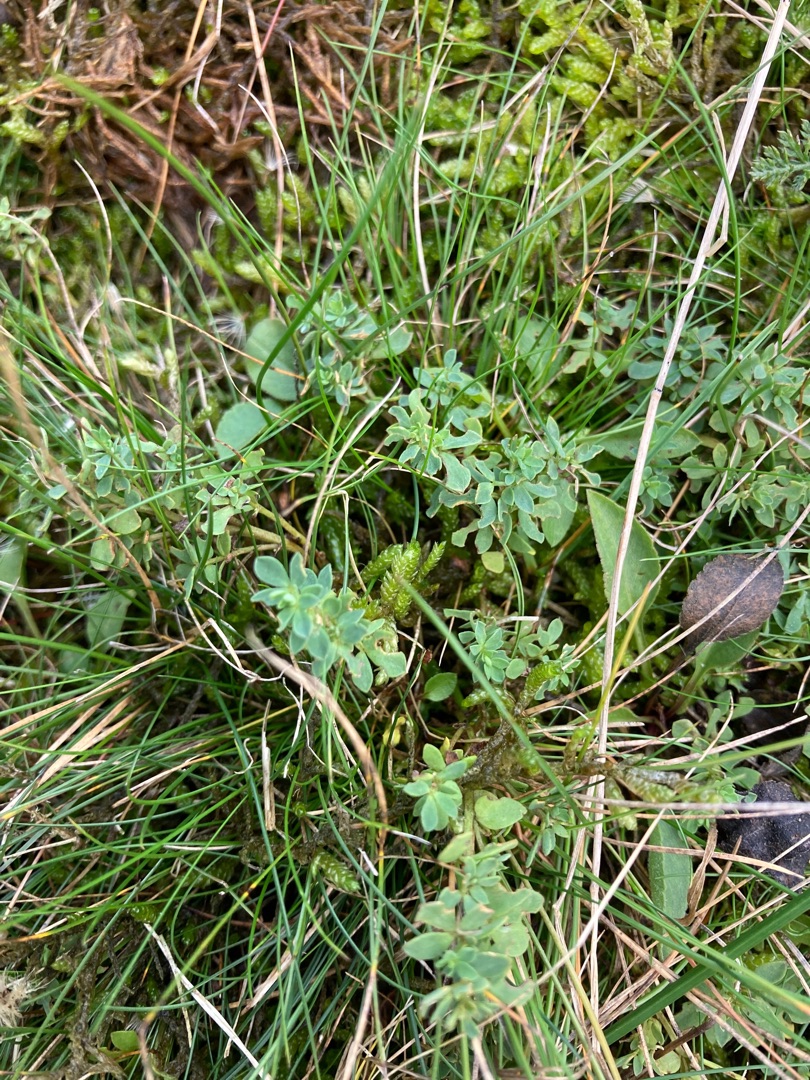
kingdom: Plantae
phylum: Tracheophyta
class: Magnoliopsida
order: Fabales
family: Fabaceae
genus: Lotus
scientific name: Lotus corniculatus
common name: Almindelig kællingetand
